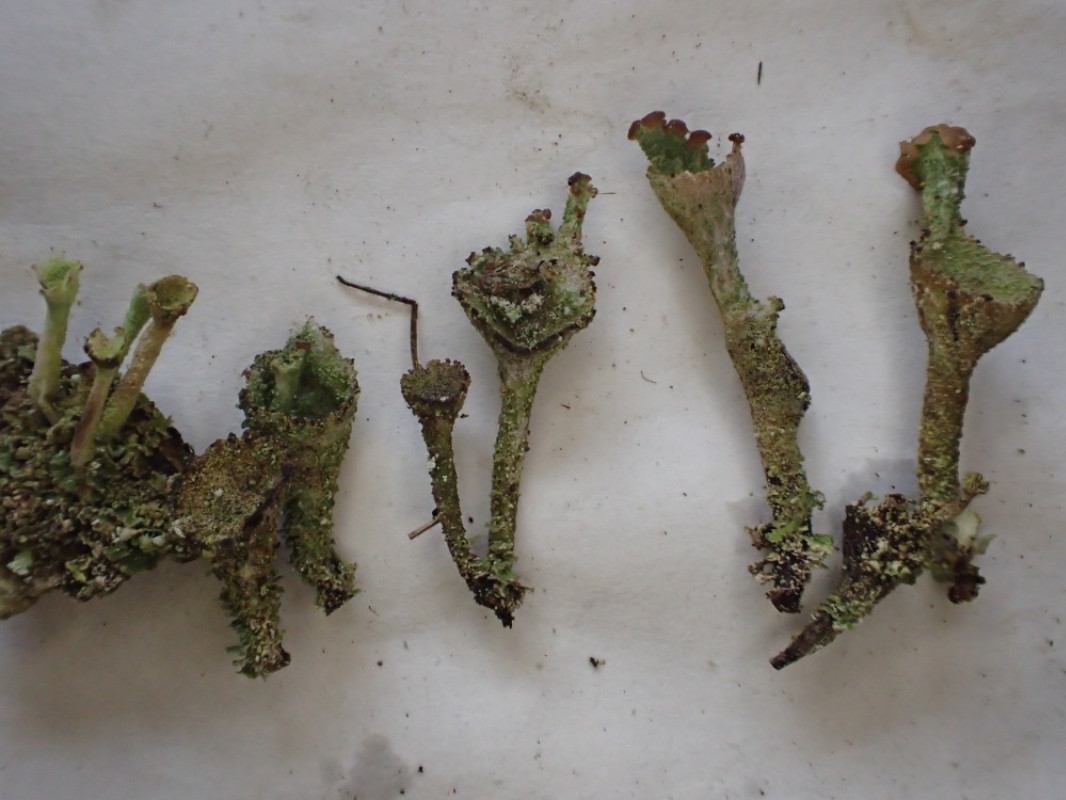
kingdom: Fungi
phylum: Ascomycota
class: Lecanoromycetes
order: Lecanorales
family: Cladoniaceae
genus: Cladonia
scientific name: Cladonia
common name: brungrøn bægerlav
